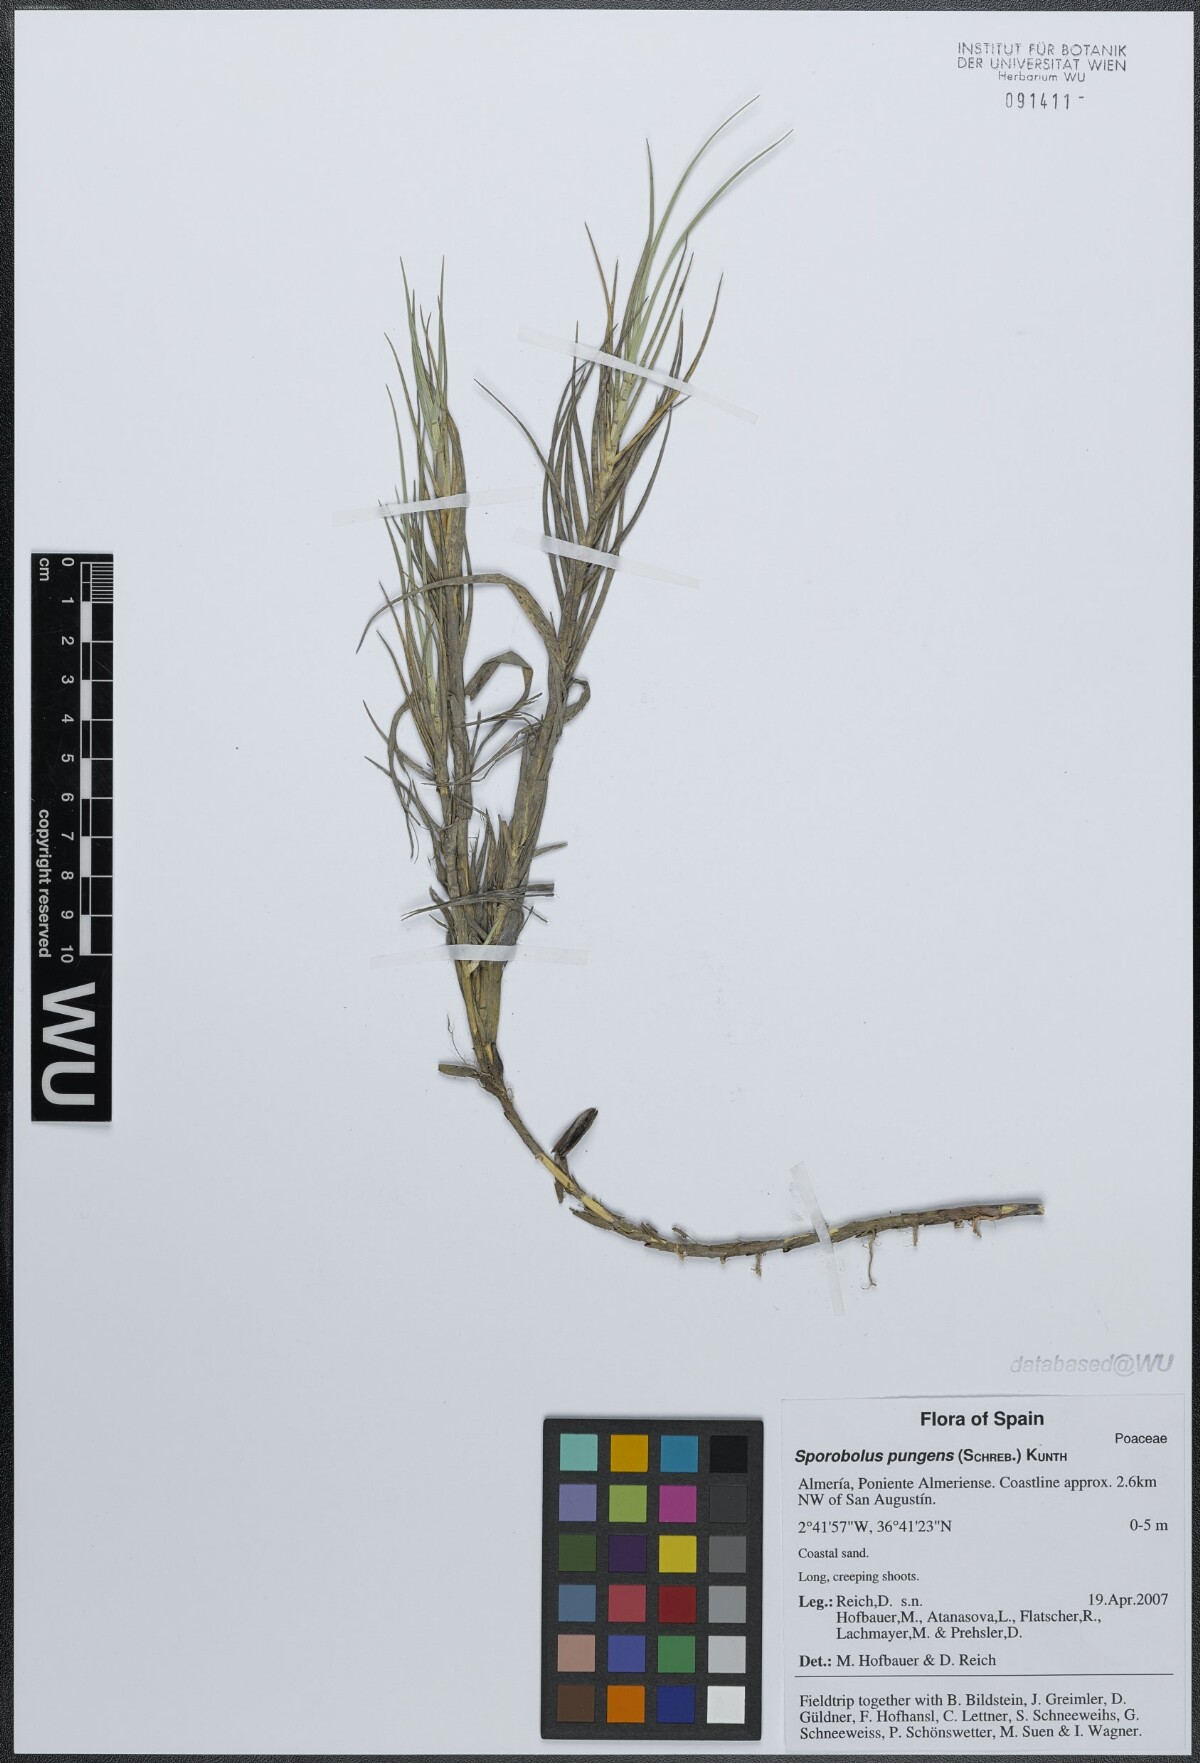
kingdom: Plantae
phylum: Tracheophyta
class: Liliopsida
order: Poales
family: Poaceae
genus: Sporobolus
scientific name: Sporobolus pungens
